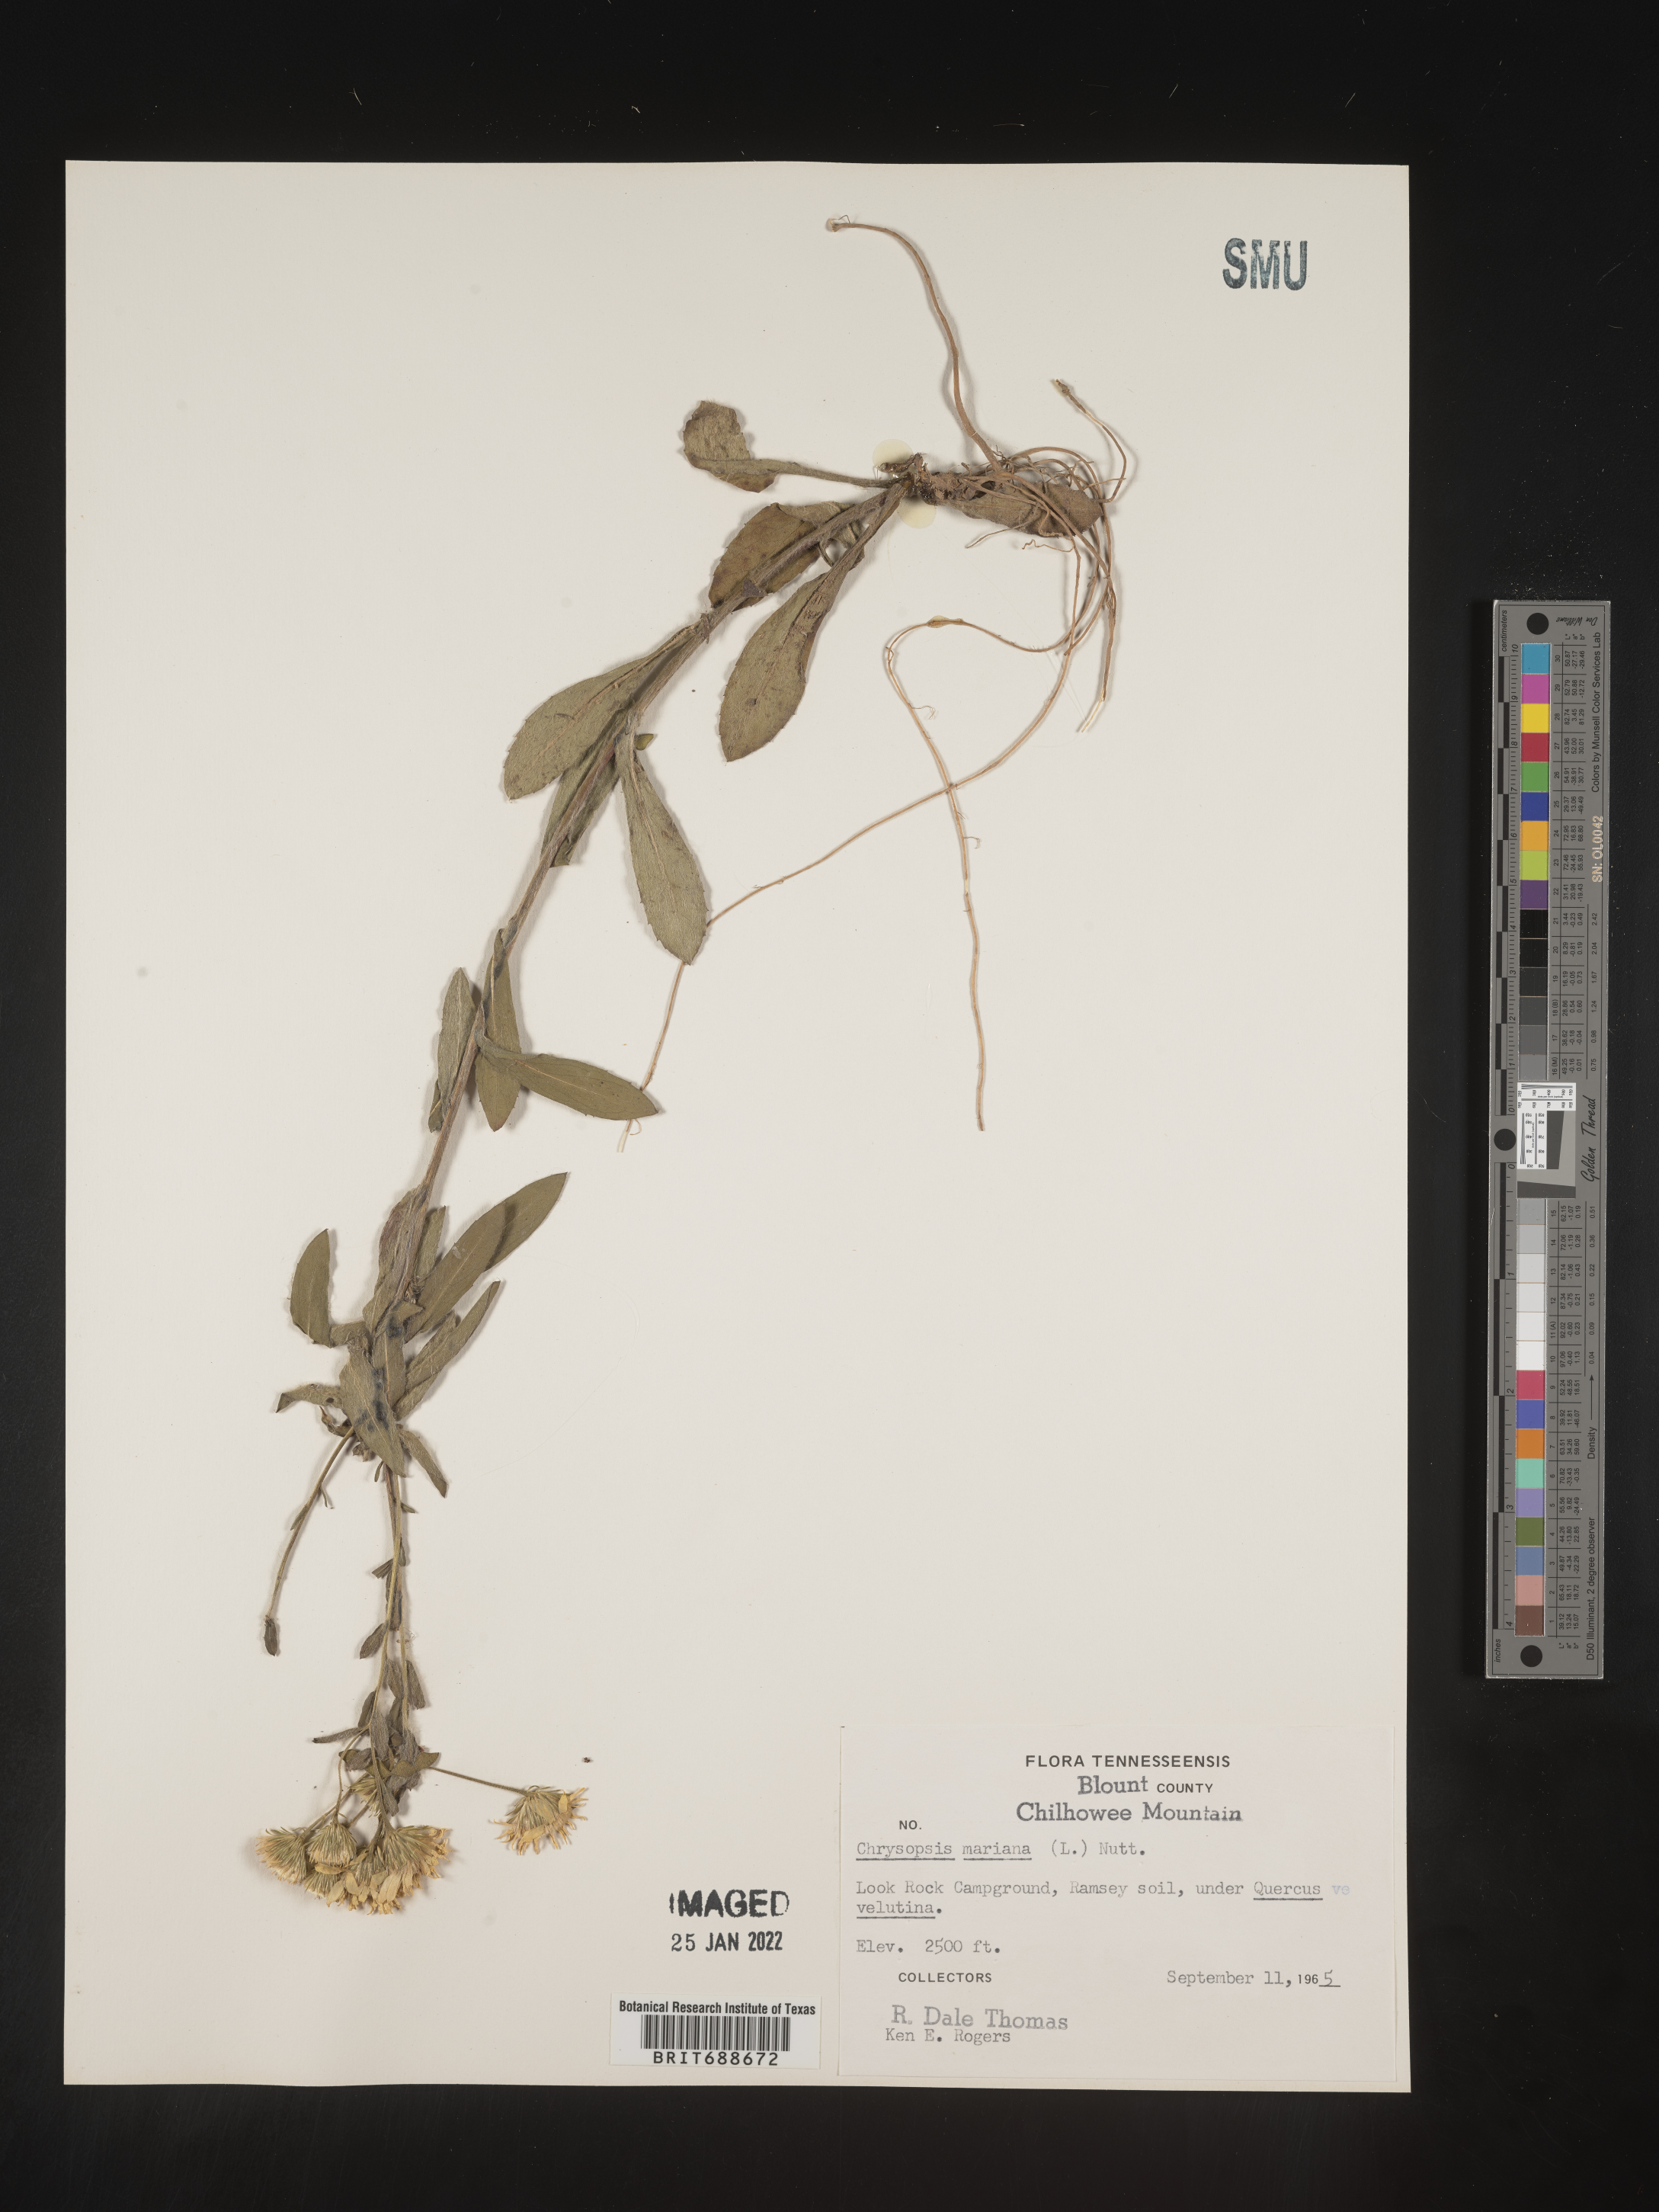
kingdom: Plantae
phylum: Tracheophyta
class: Magnoliopsida
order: Asterales
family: Asteraceae
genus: Chrysopsis
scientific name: Chrysopsis mariana
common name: Maryland golden-aster
